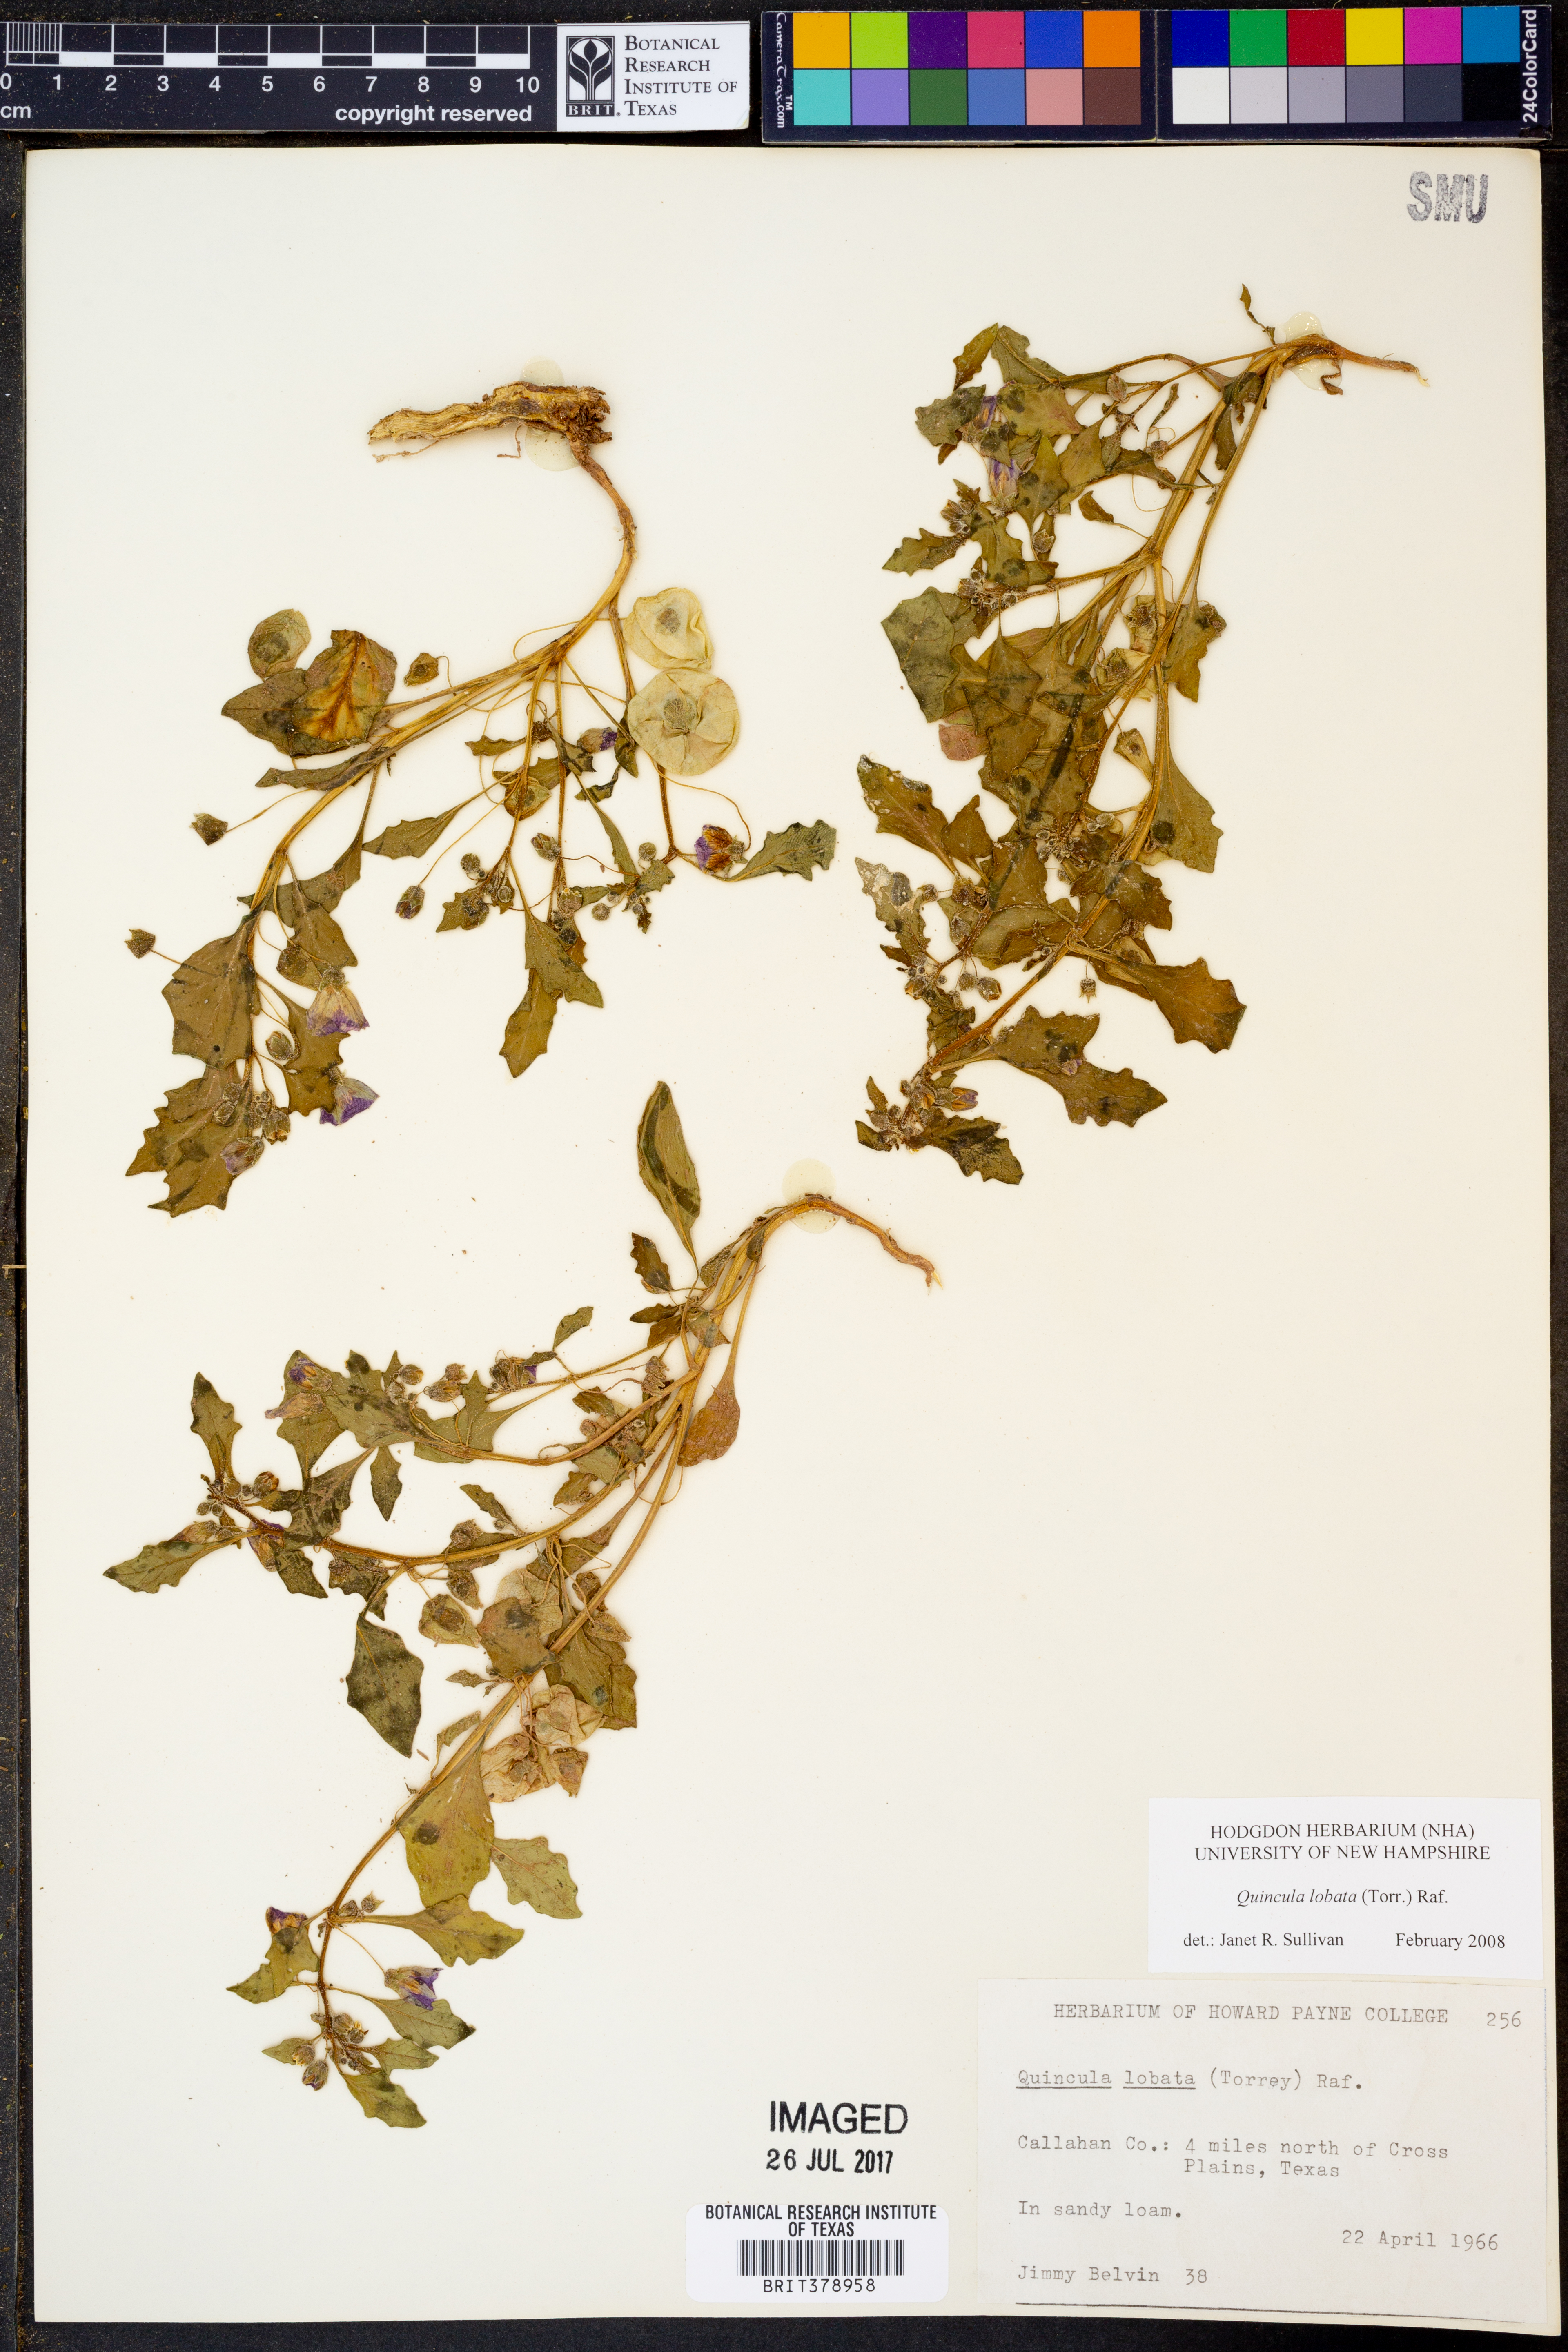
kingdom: Plantae
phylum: Tracheophyta
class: Magnoliopsida
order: Solanales
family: Solanaceae
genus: Quincula
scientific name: Quincula lobata
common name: Purple-ground-cherry
